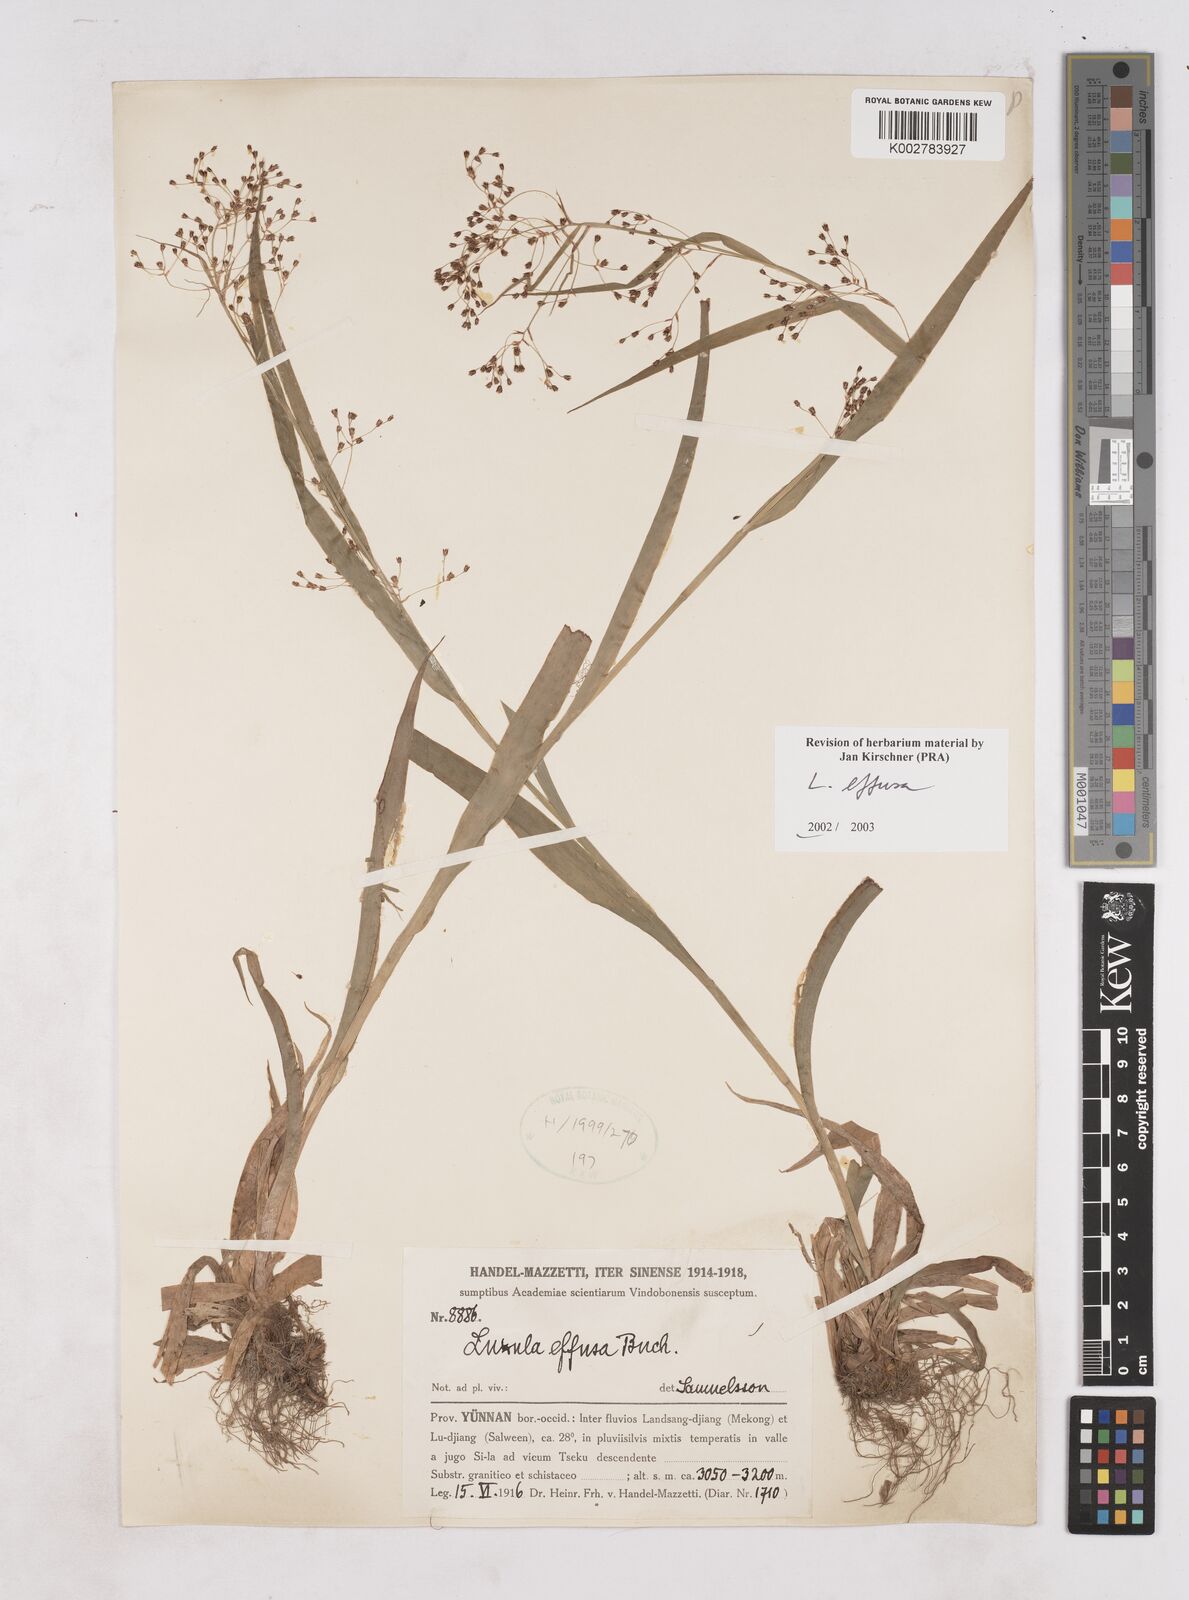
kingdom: Plantae
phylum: Tracheophyta
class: Liliopsida
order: Poales
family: Juncaceae
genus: Luzula
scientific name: Luzula effusa
